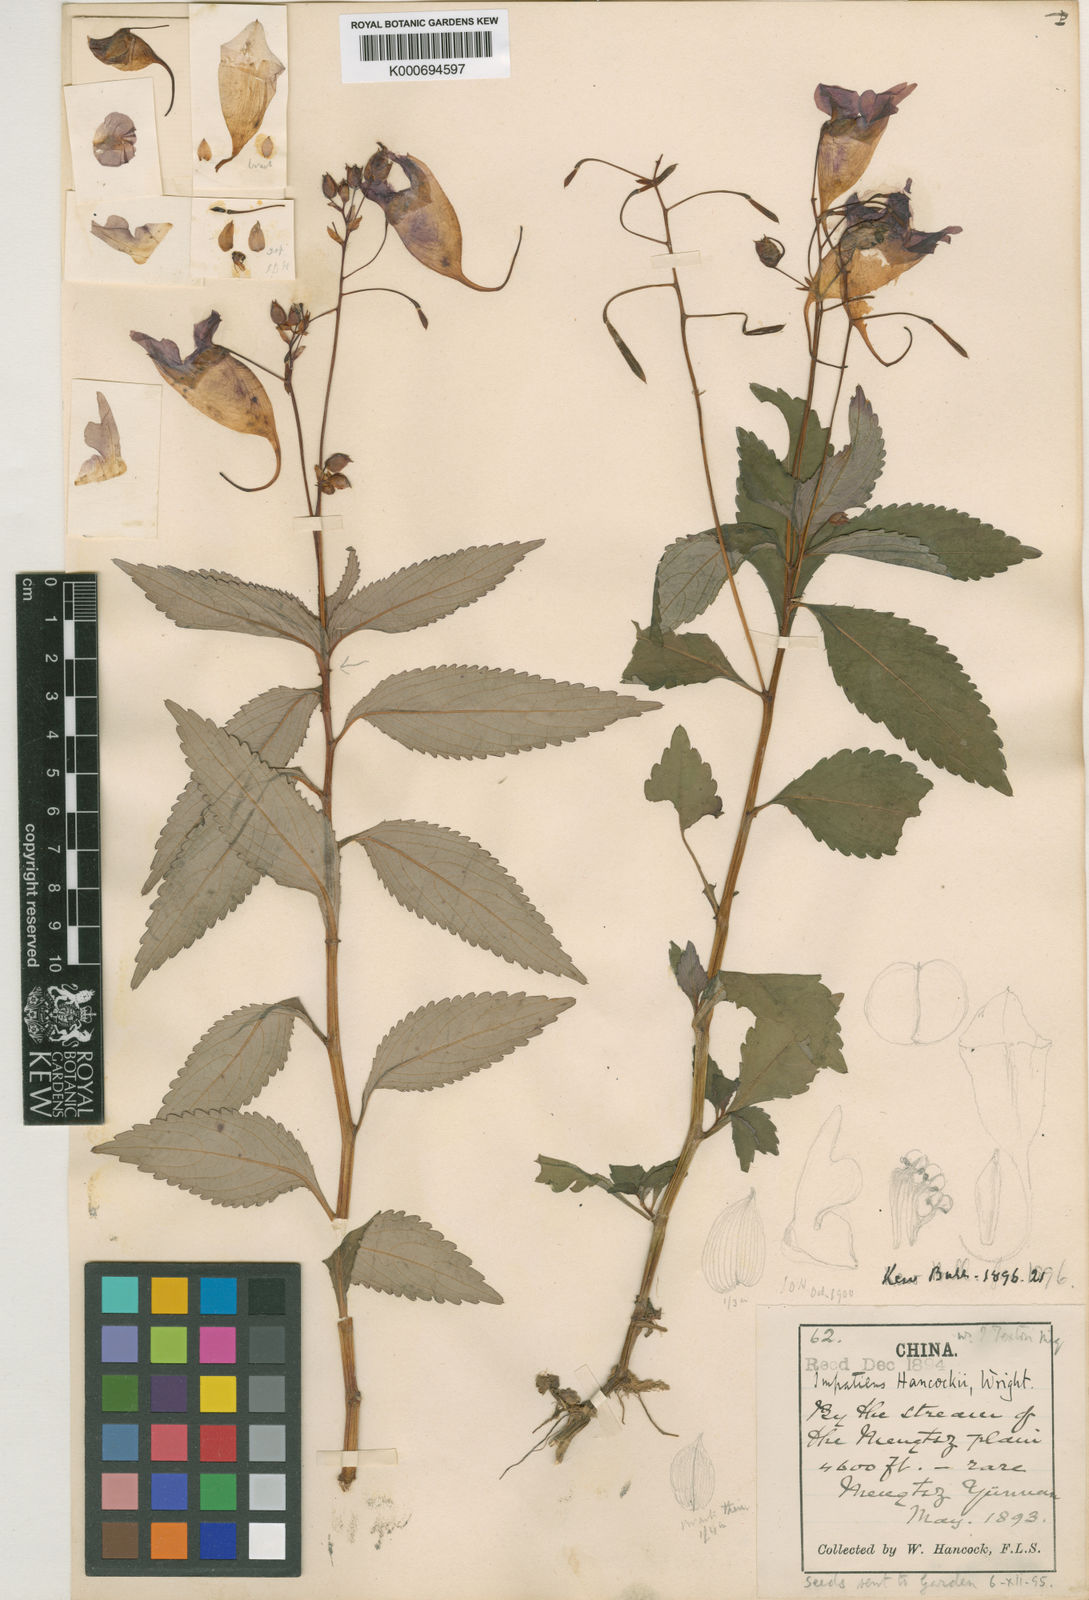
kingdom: Plantae
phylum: Tracheophyta
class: Magnoliopsida
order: Ericales
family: Balsaminaceae
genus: Impatiens
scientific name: Impatiens hancockii
